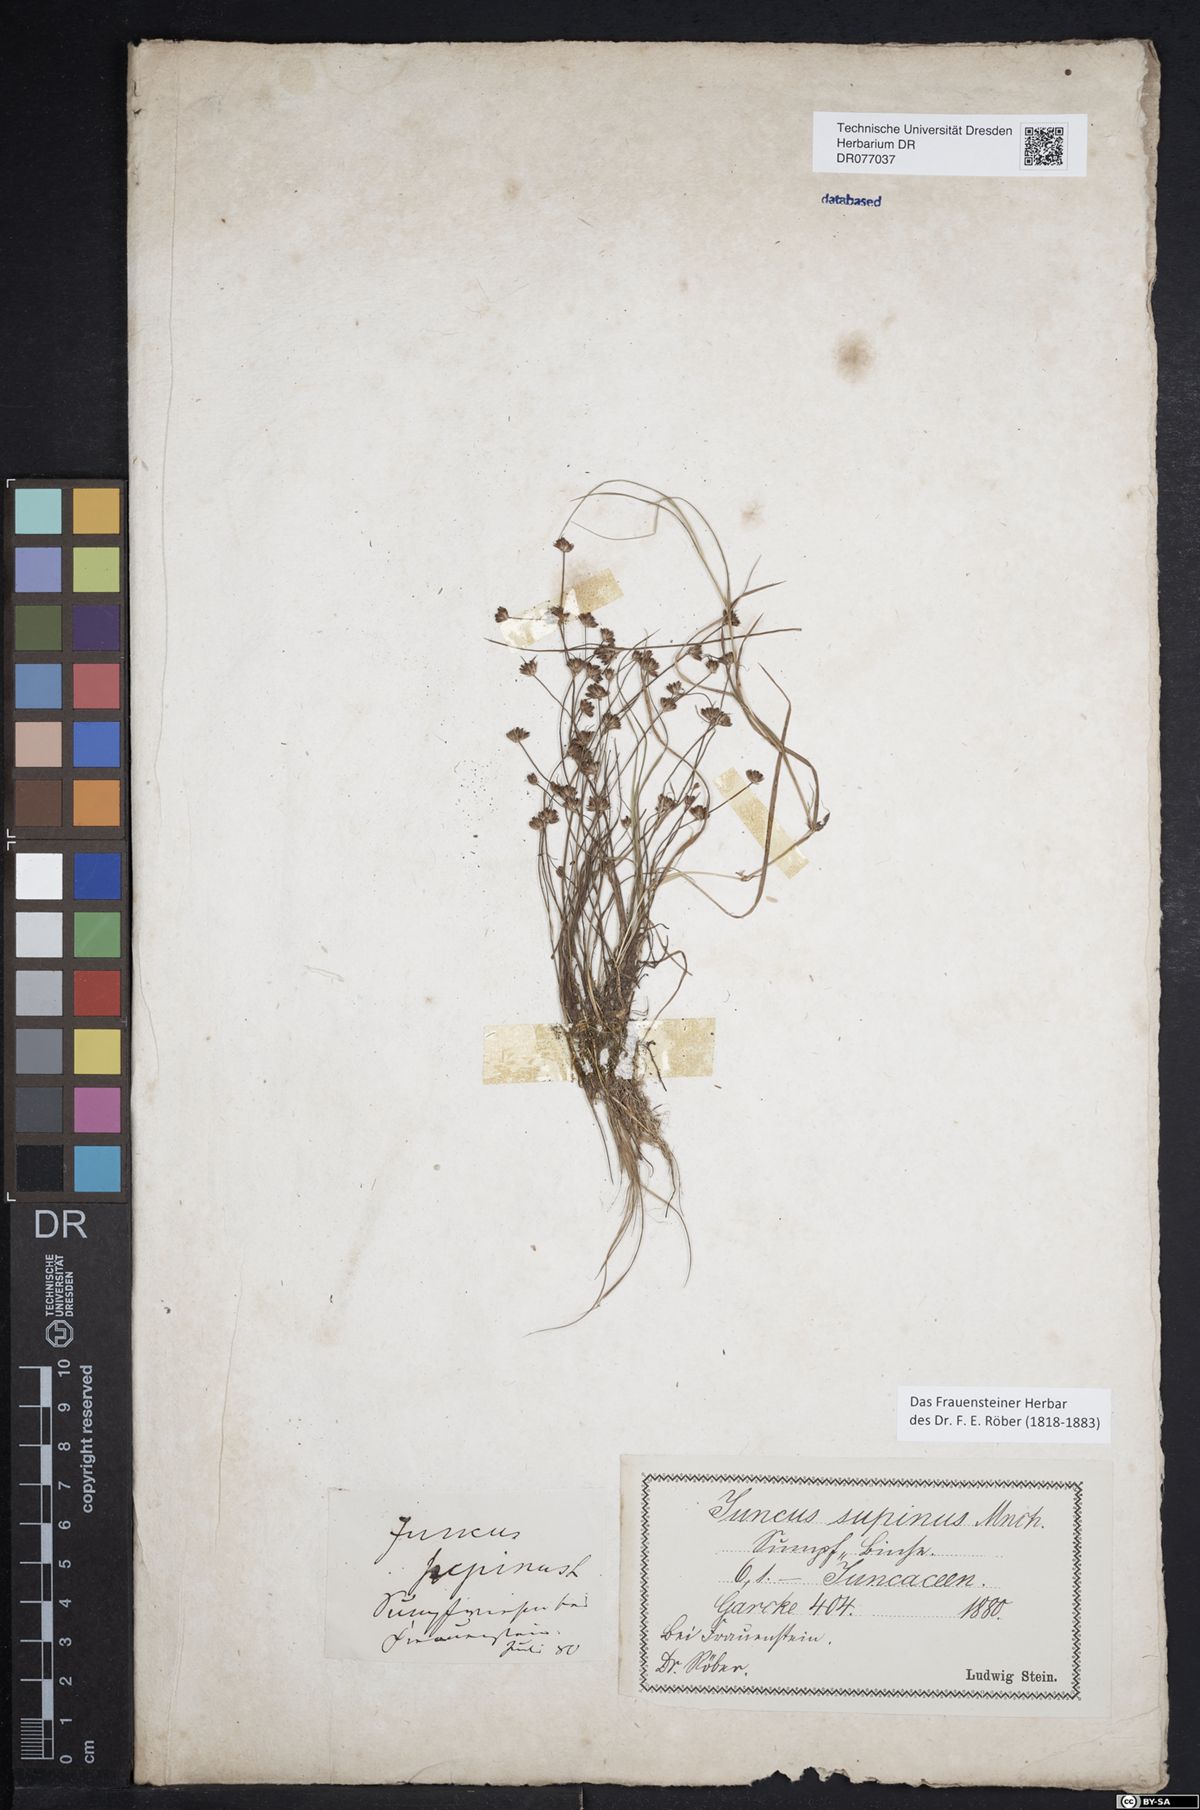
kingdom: Plantae
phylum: Tracheophyta
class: Liliopsida
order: Poales
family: Juncaceae
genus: Juncus
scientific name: Juncus bulbosus
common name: Bulbous rush
